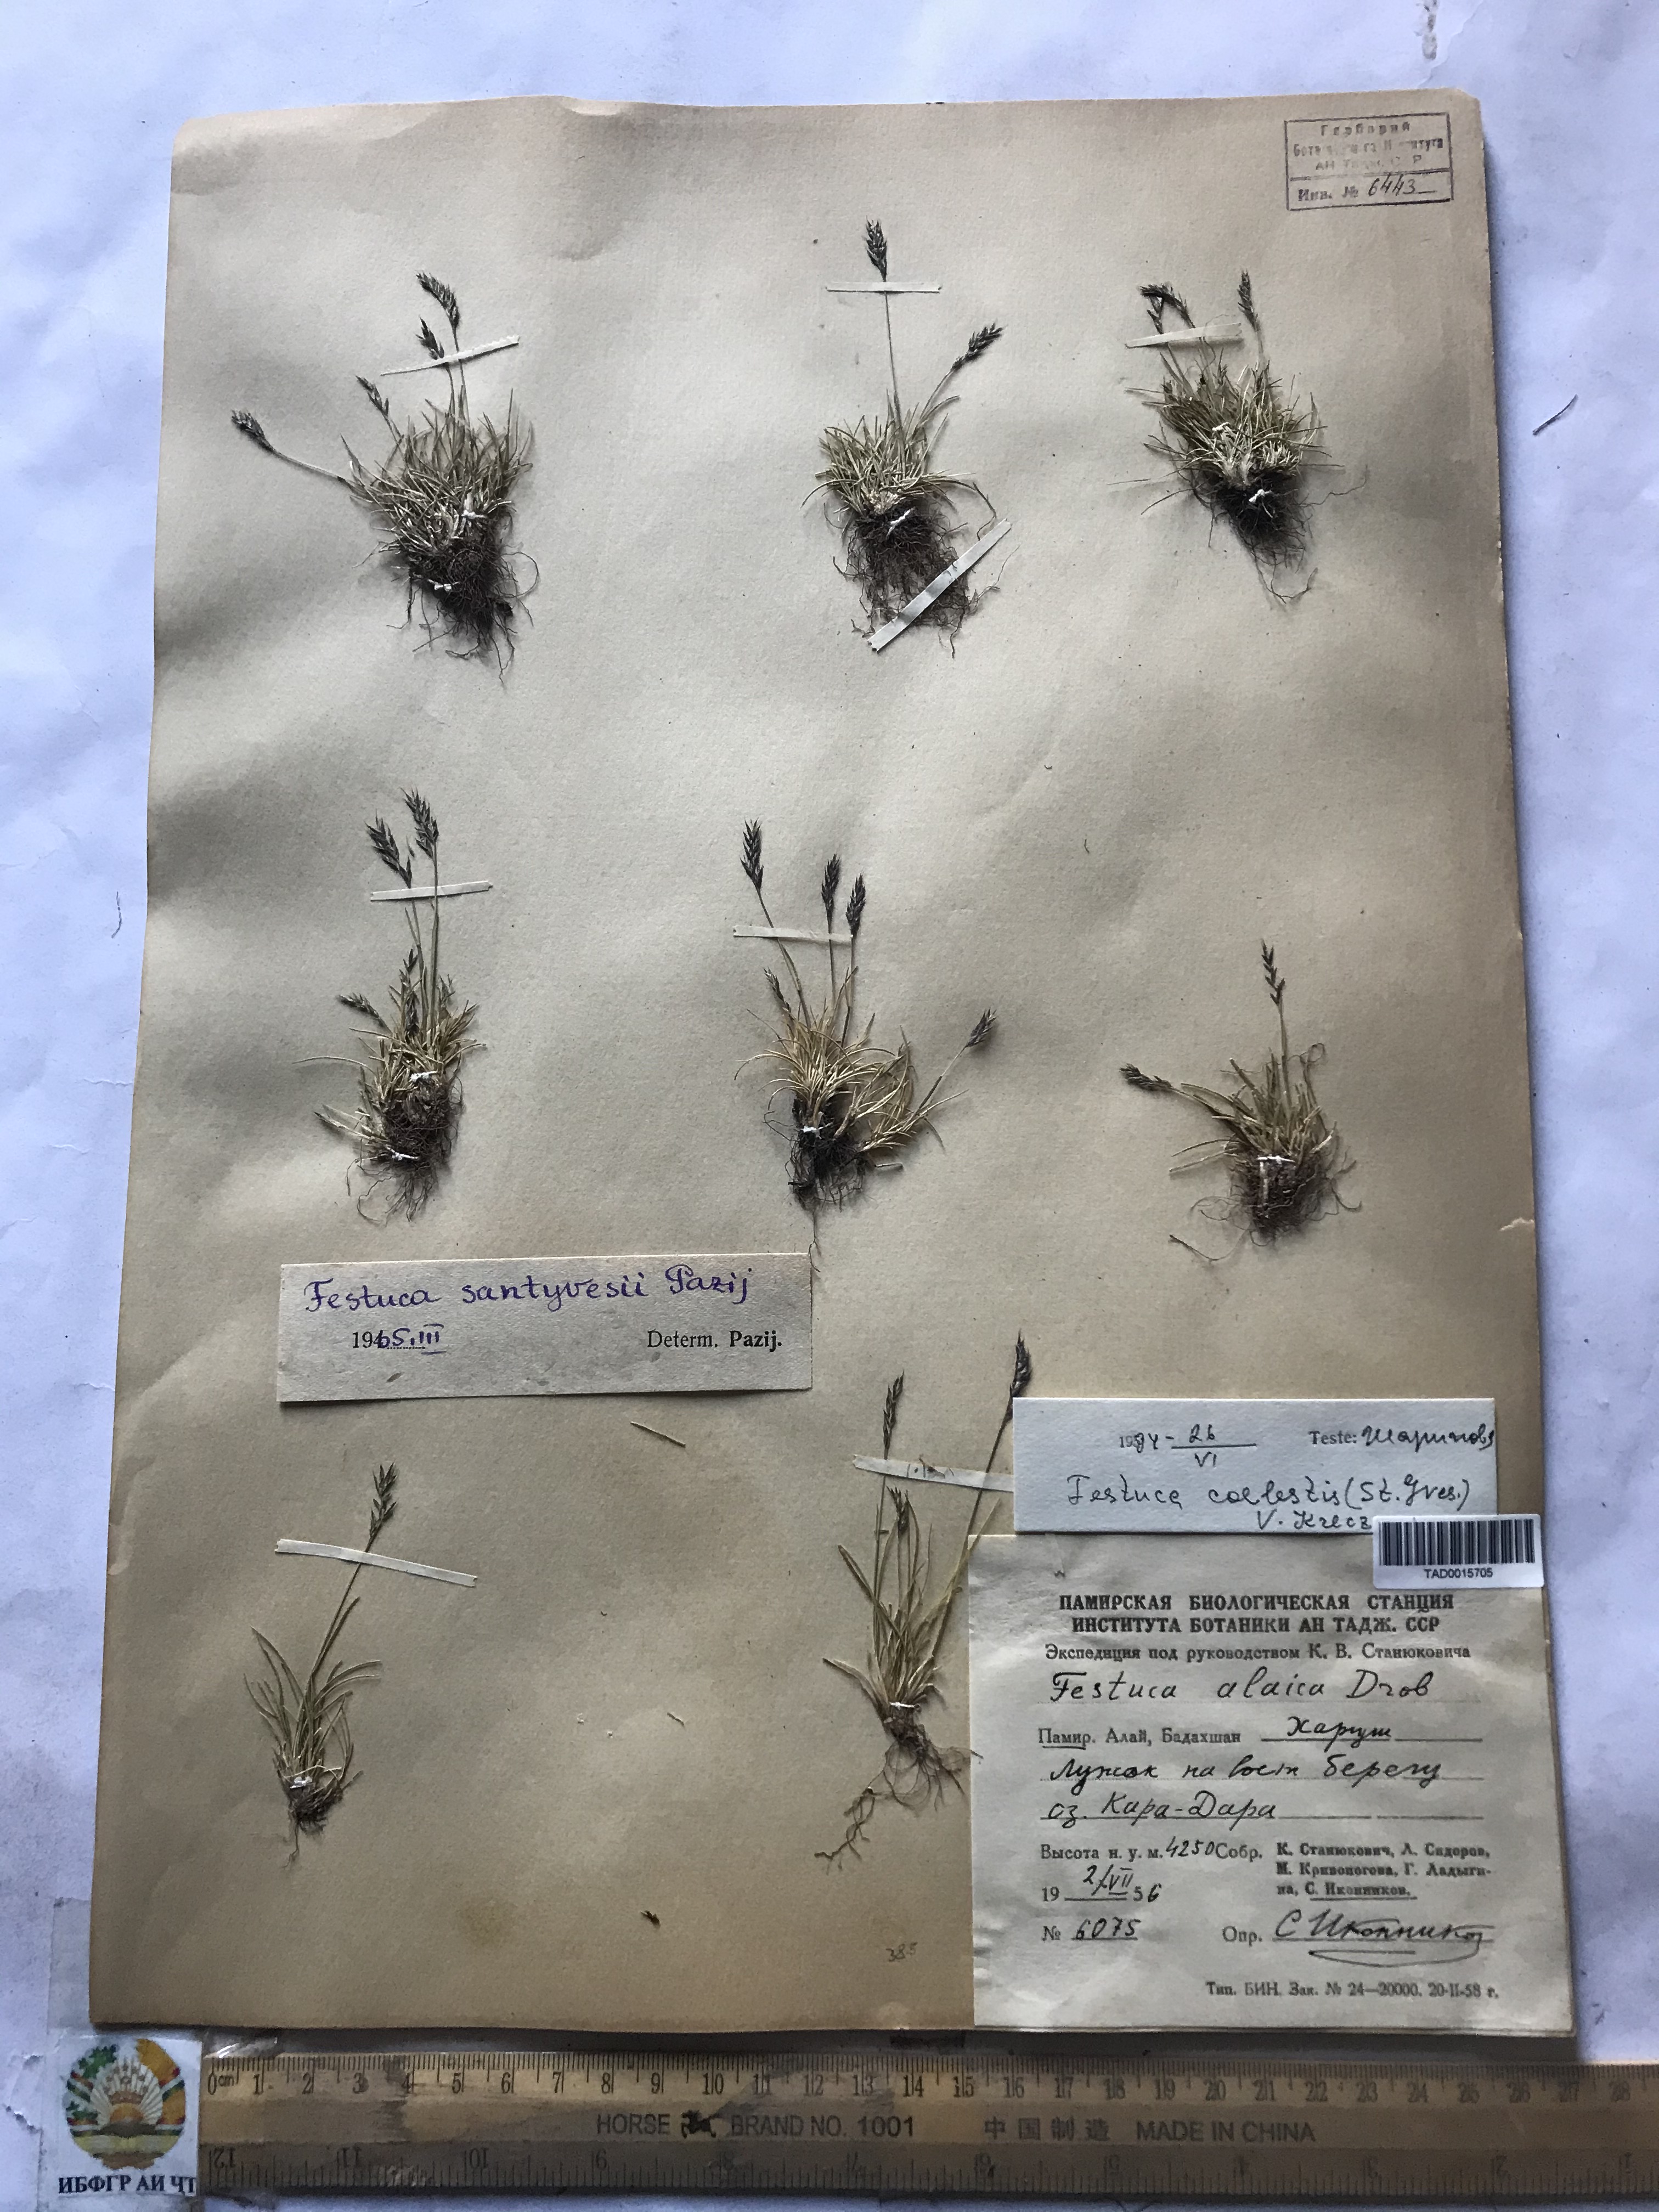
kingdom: Plantae
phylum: Tracheophyta
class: Liliopsida
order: Poales
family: Poaceae
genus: Festuca
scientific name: Festuca coelestis
